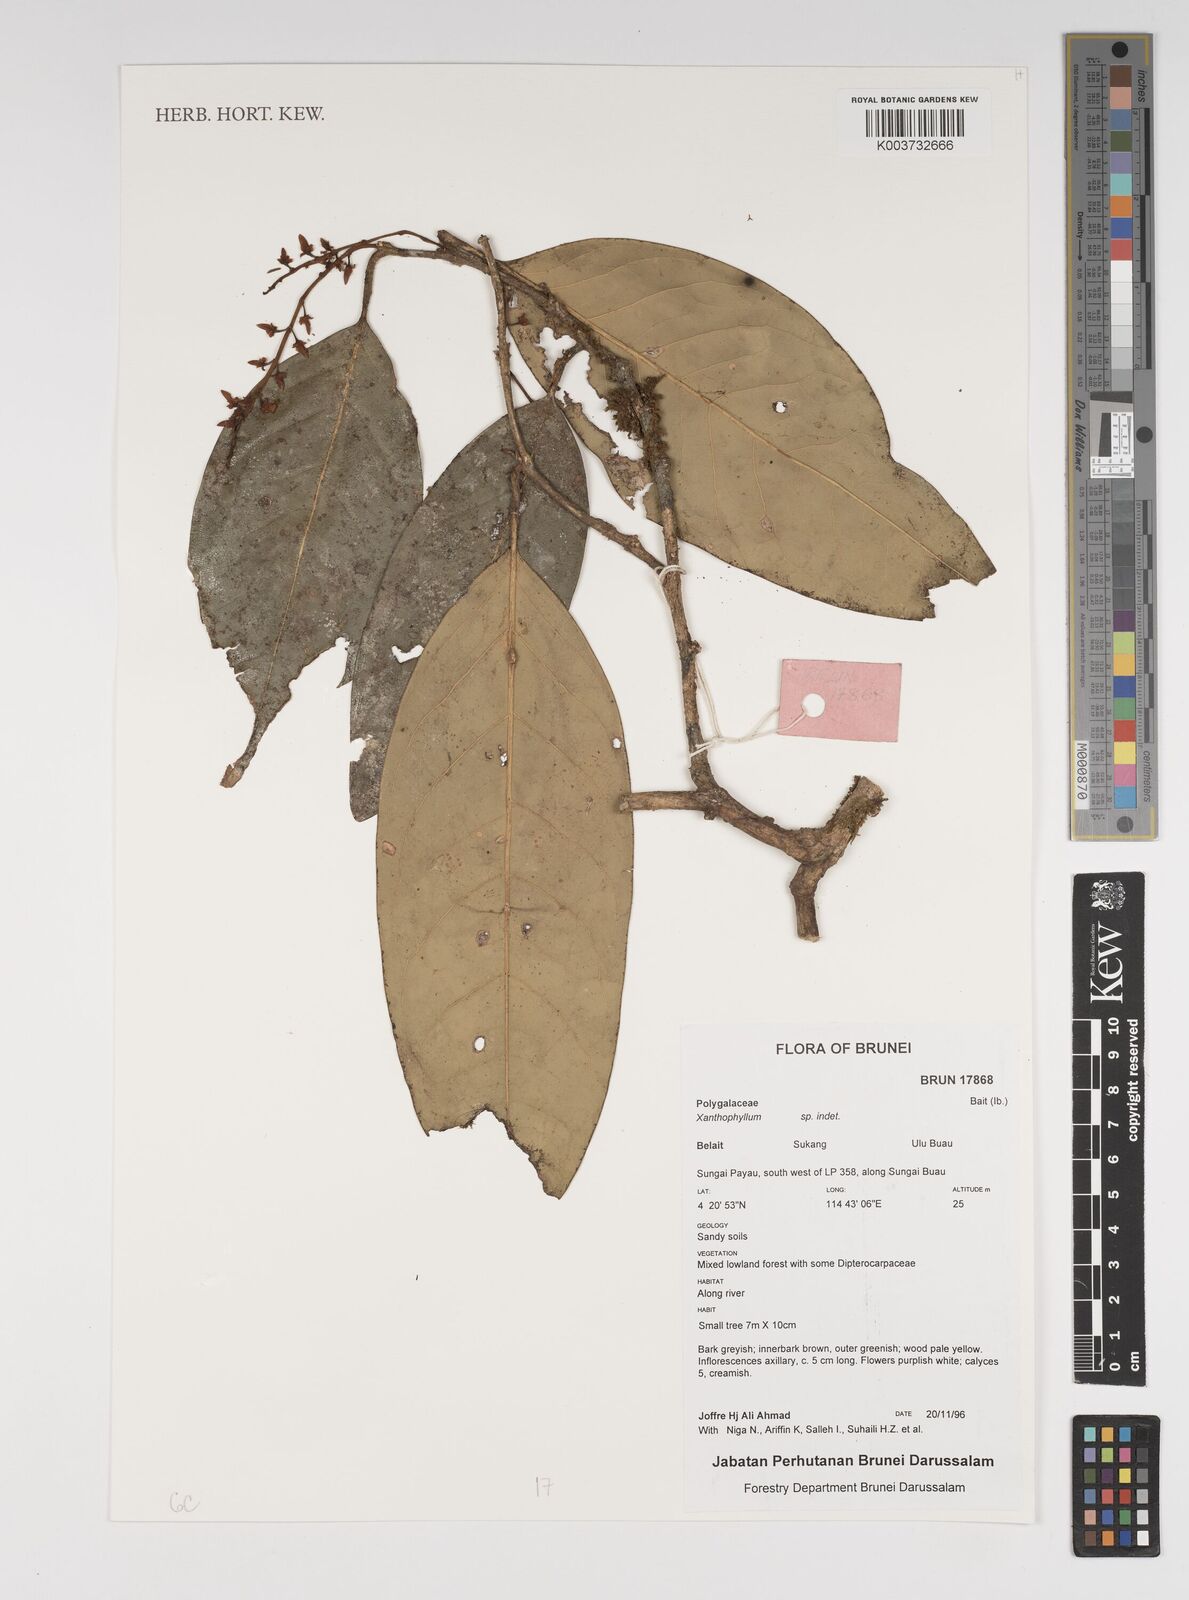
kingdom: Plantae
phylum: Tracheophyta
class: Magnoliopsida
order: Fabales
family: Polygalaceae
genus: Xanthophyllum
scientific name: Xanthophyllum
